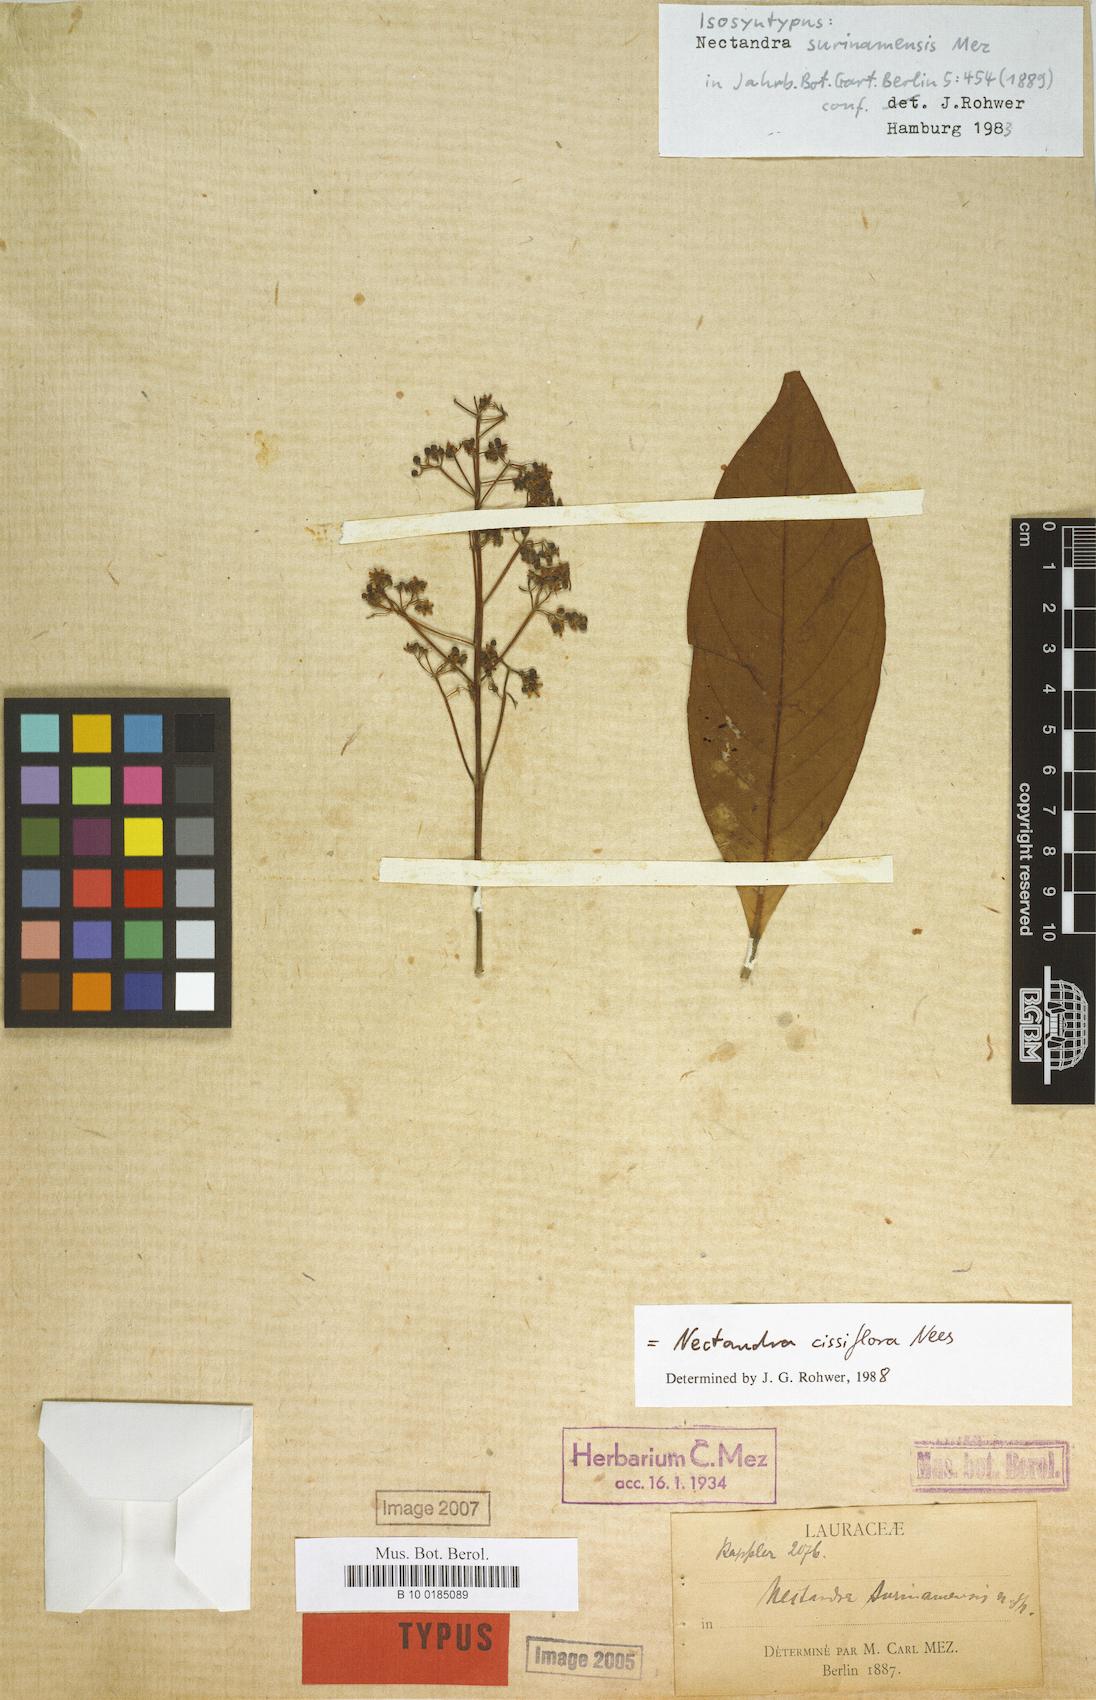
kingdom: Plantae
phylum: Tracheophyta
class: Magnoliopsida
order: Laurales
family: Lauraceae
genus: Nectandra
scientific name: Nectandra cissiflora
